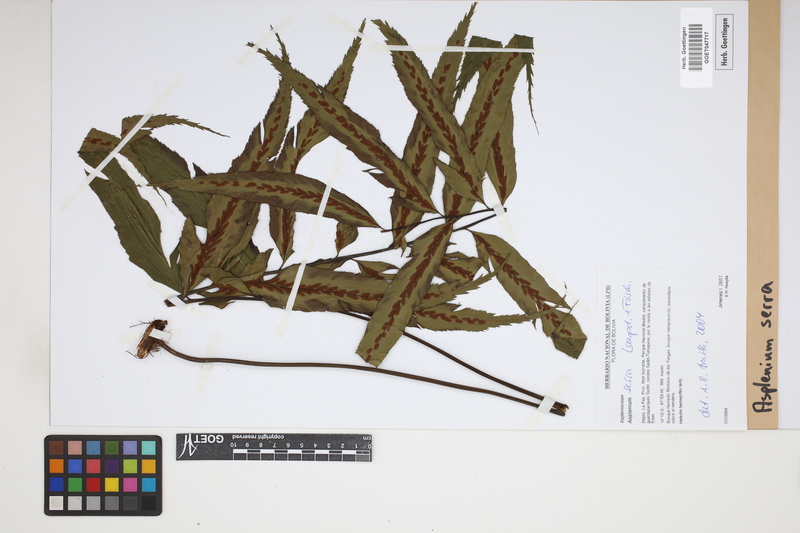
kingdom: Plantae
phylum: Tracheophyta
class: Polypodiopsida
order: Polypodiales
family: Aspleniaceae
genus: Asplenium
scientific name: Asplenium serra
